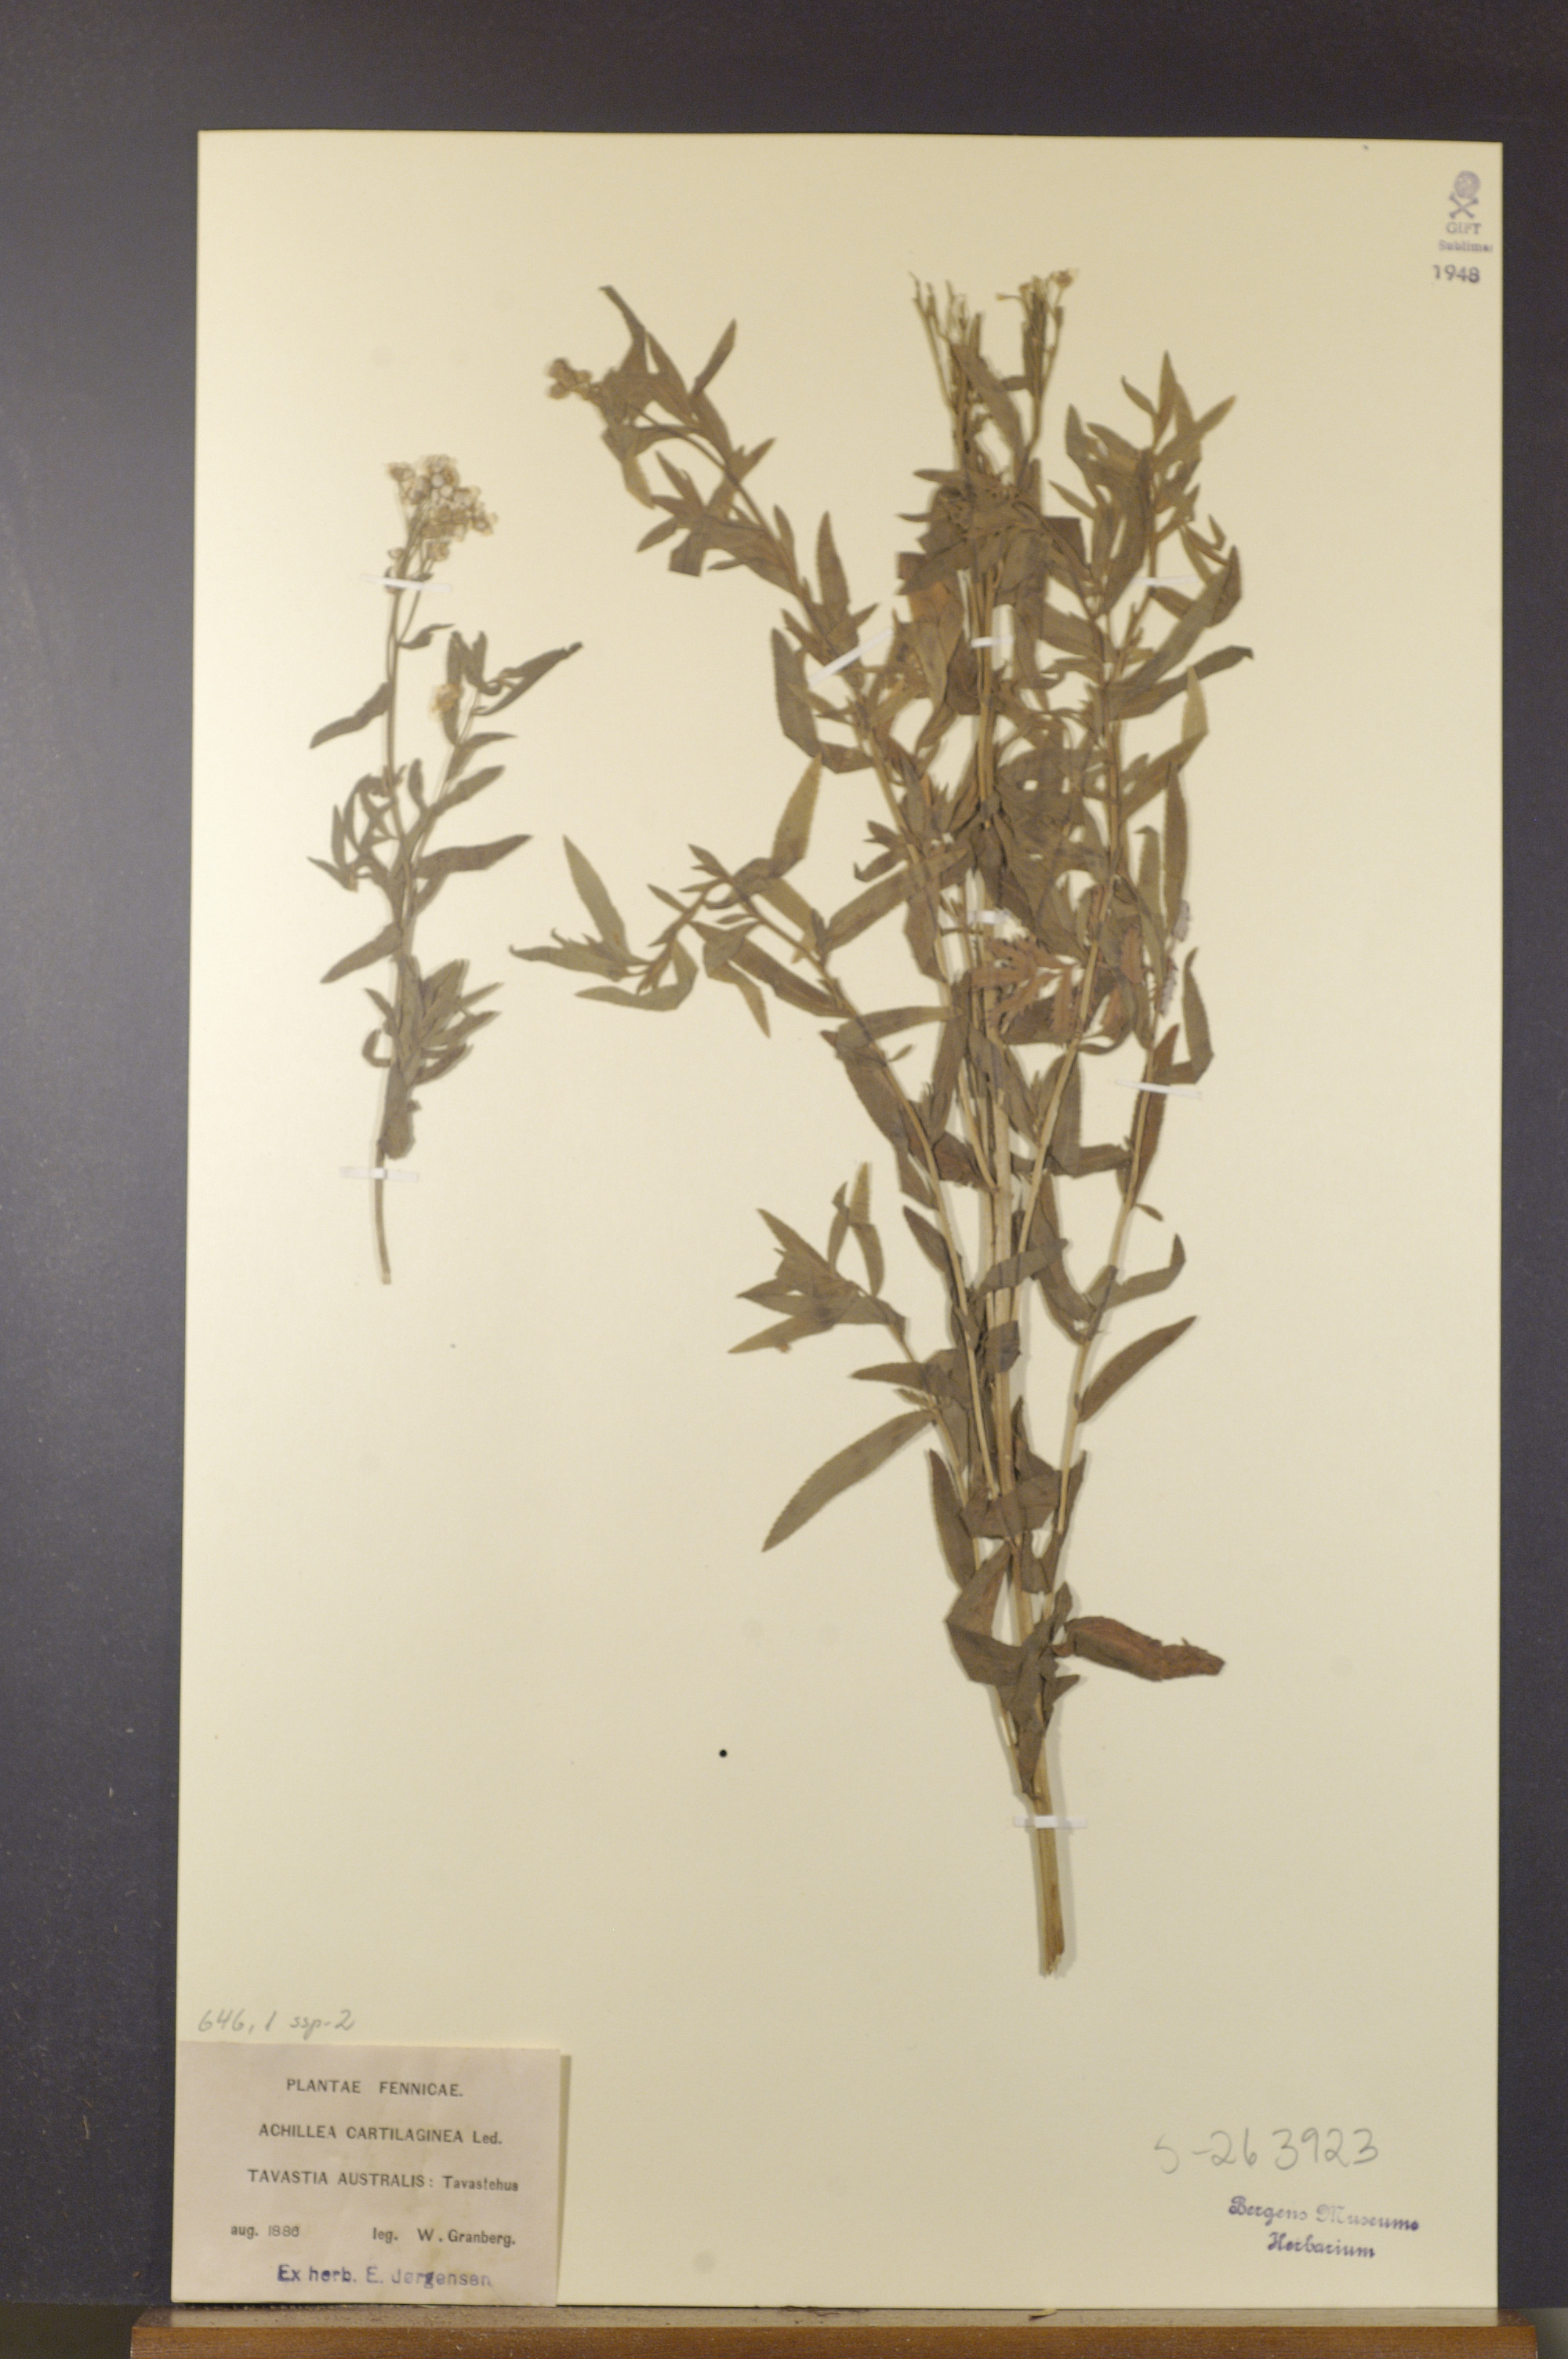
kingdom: Plantae
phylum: Tracheophyta
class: Magnoliopsida
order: Asterales
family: Asteraceae
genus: Achillea
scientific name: Achillea salicifolia
